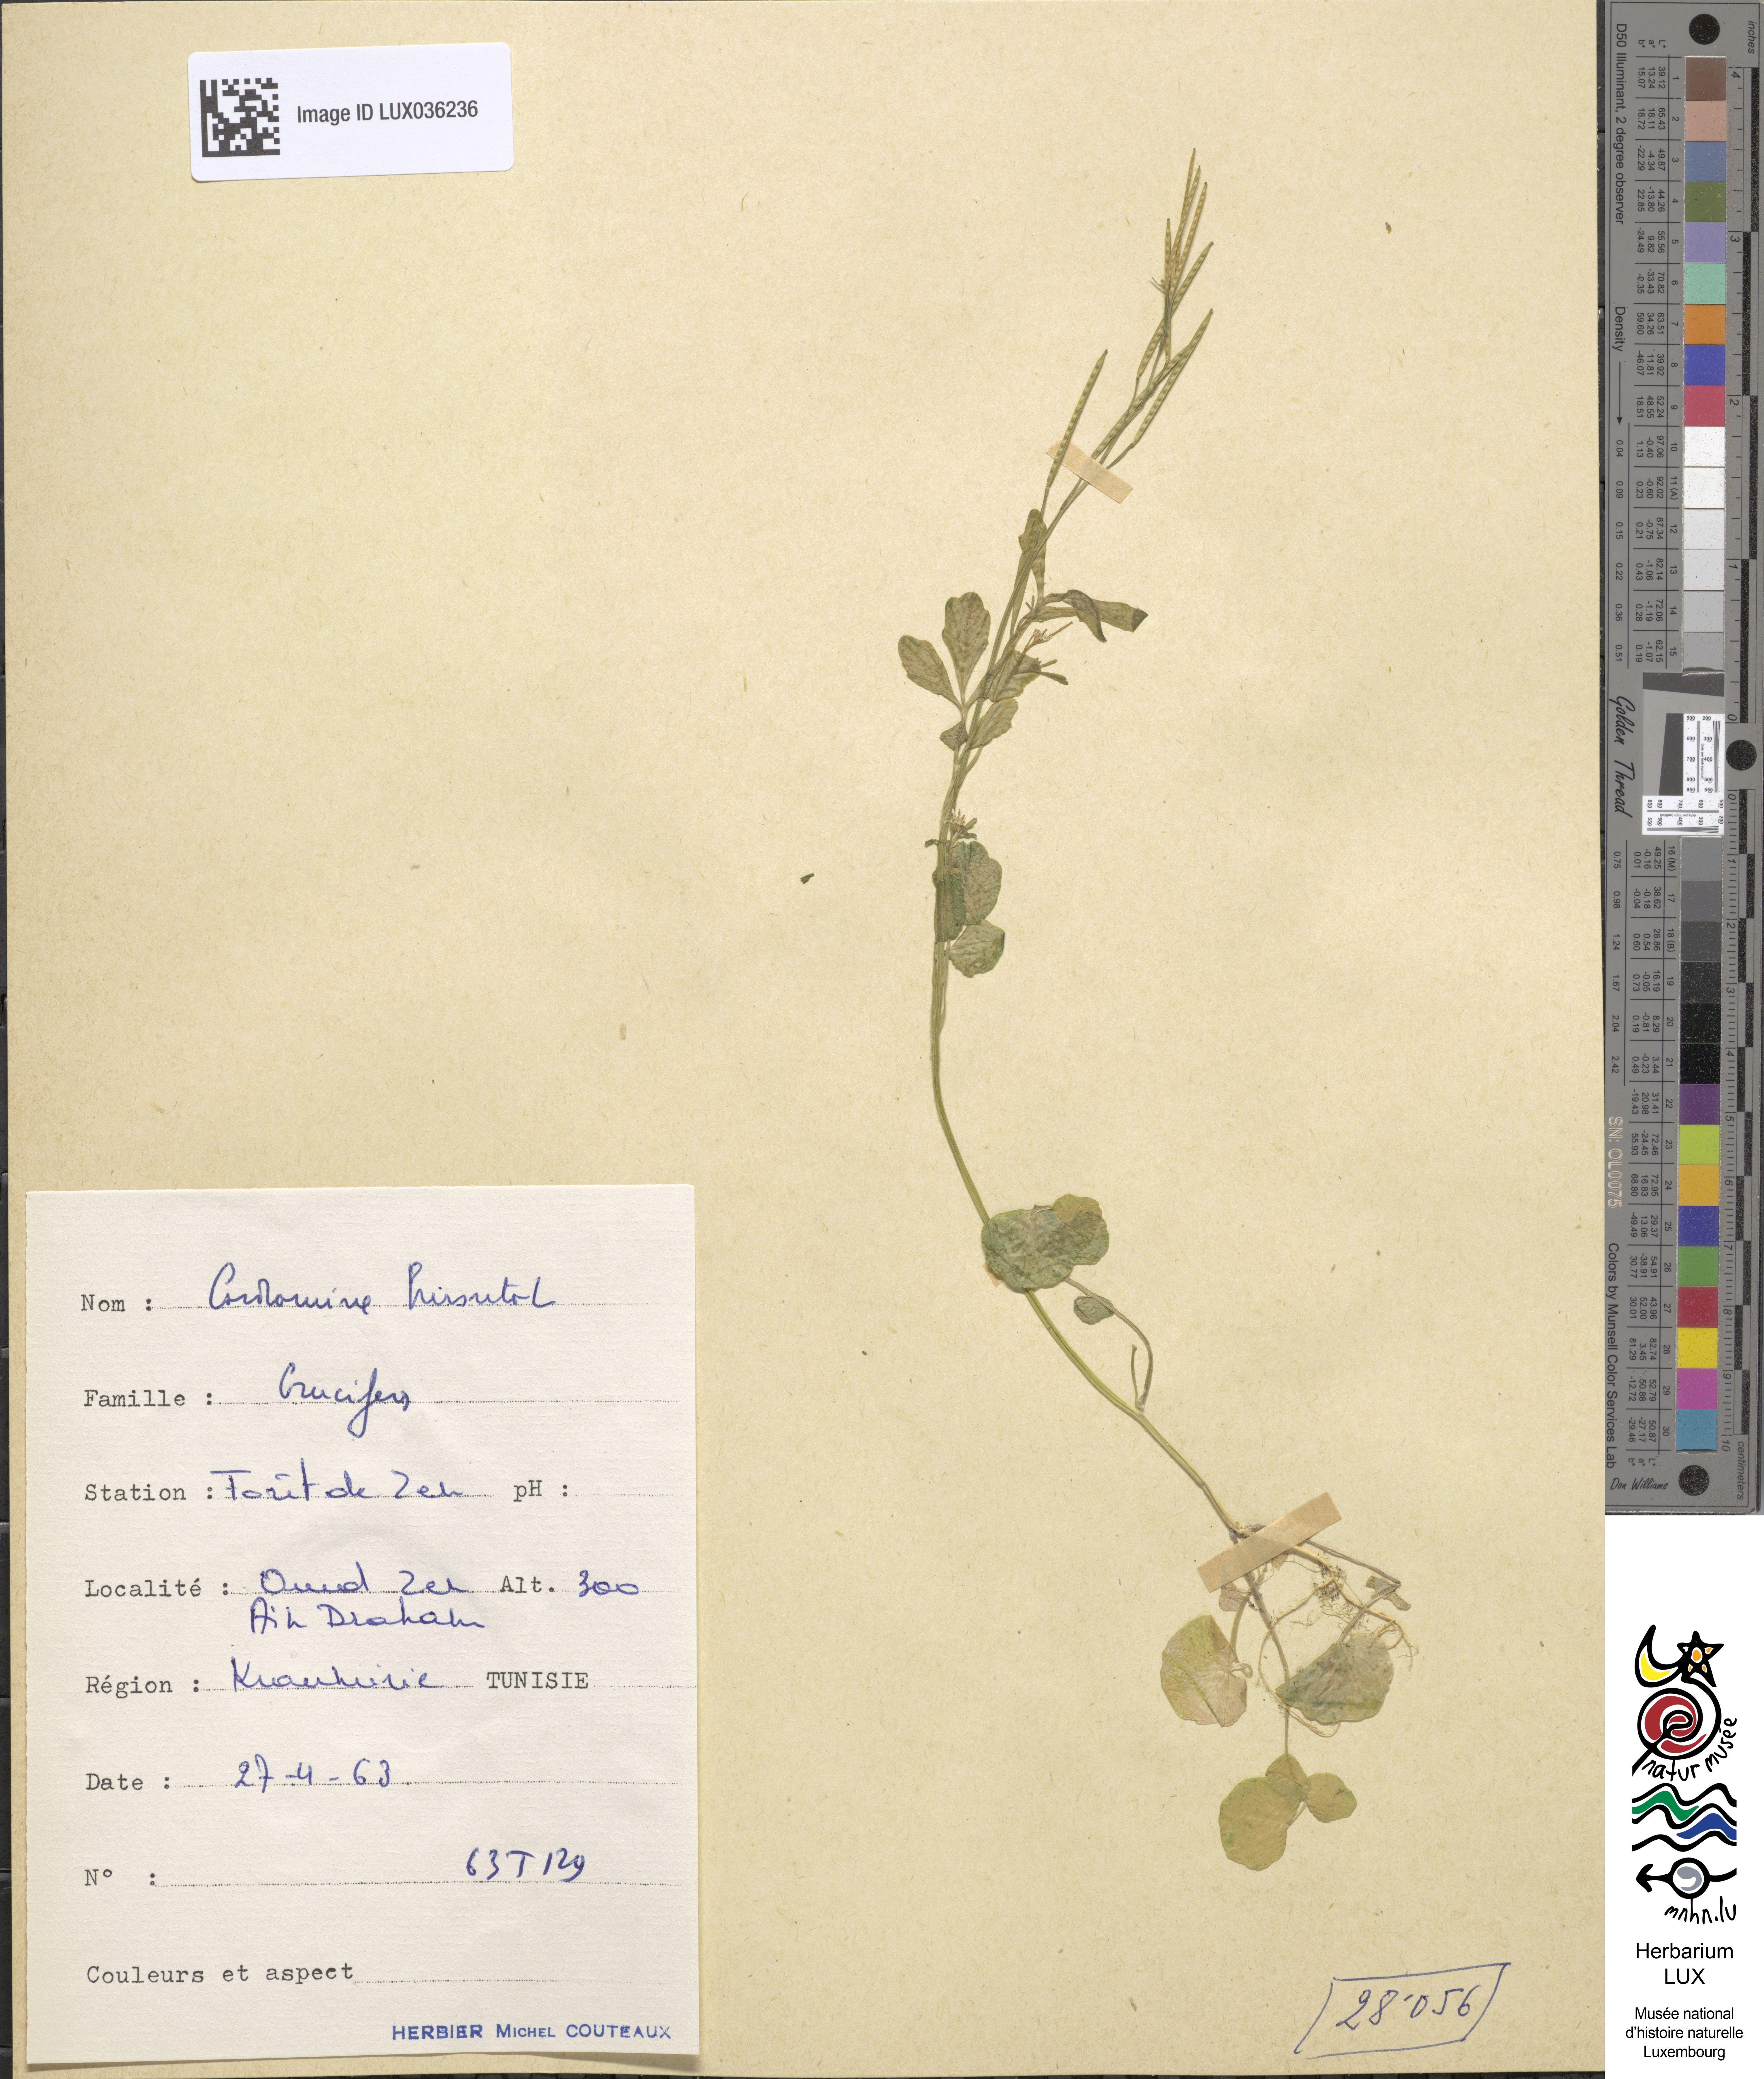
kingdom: Plantae
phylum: Tracheophyta
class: Magnoliopsida
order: Brassicales
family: Brassicaceae
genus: Cardamine
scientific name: Cardamine hirsuta
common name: Hairy bittercress
